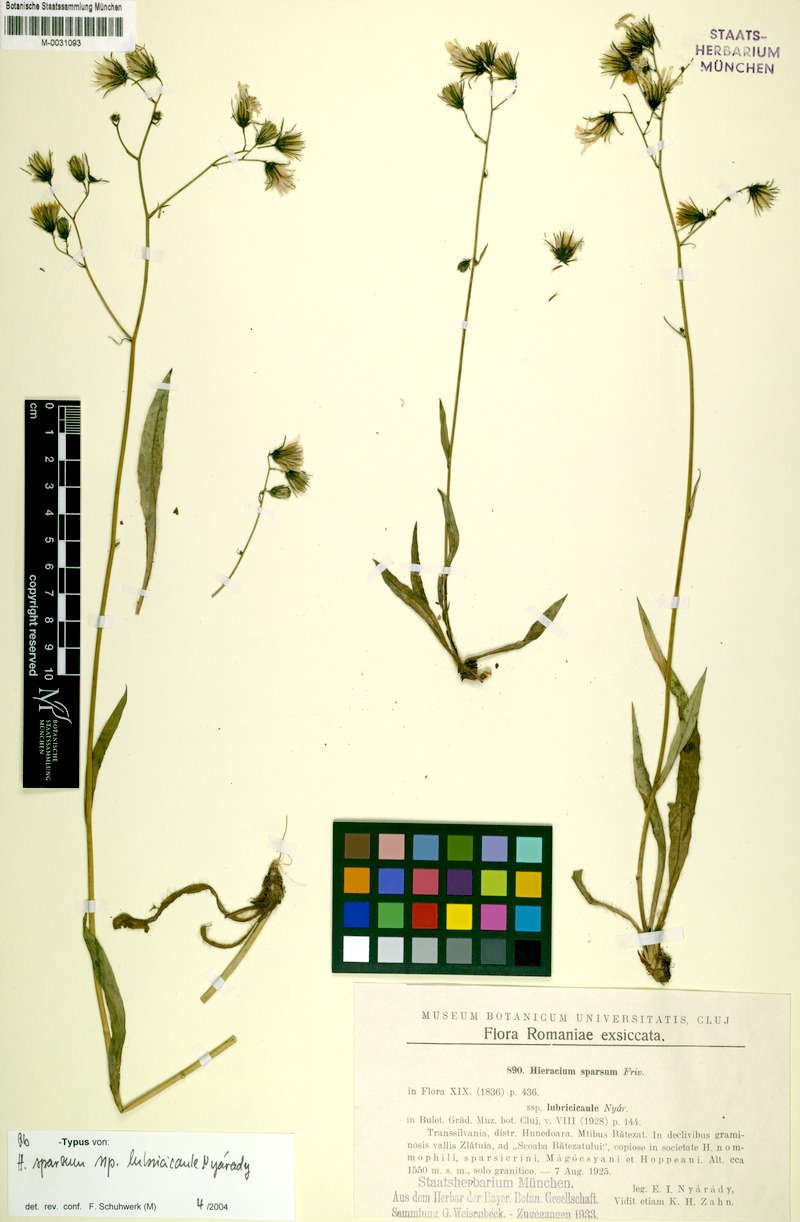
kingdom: Plantae
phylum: Tracheophyta
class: Magnoliopsida
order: Asterales
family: Asteraceae
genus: Hieracium
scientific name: Hieracium sparsum
